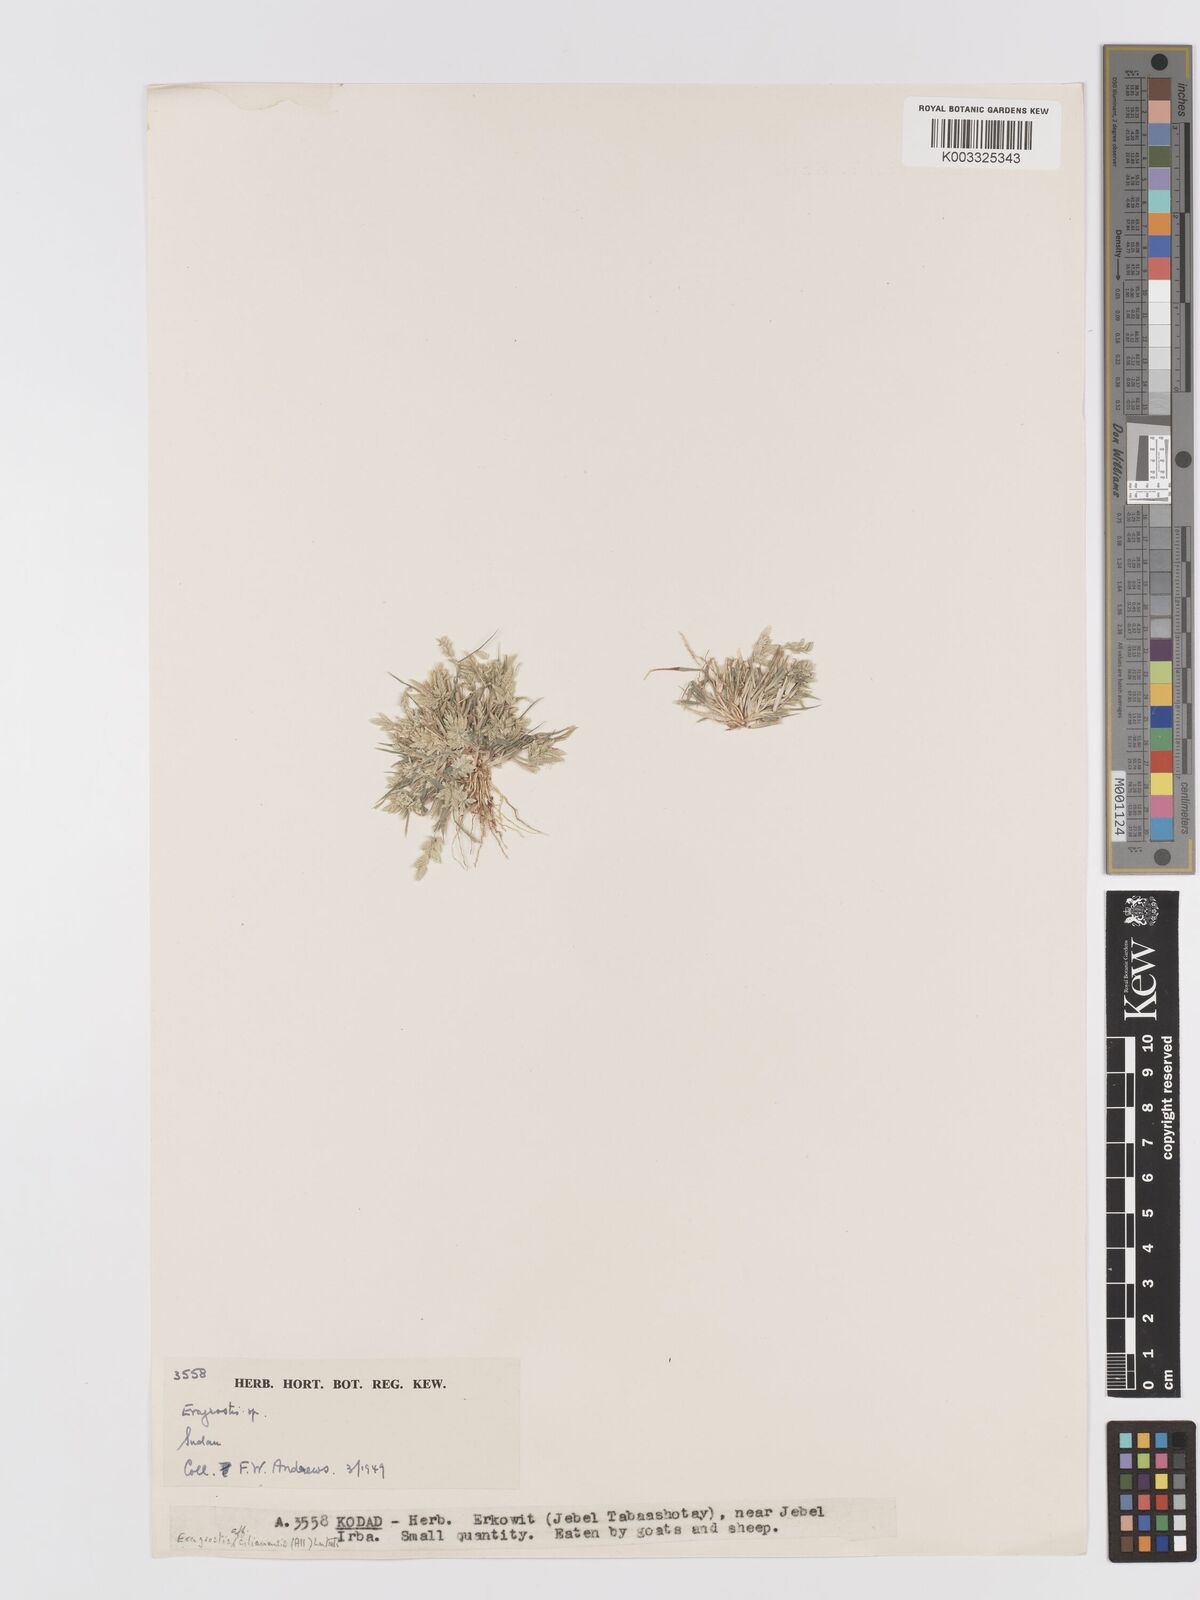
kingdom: Plantae
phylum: Tracheophyta
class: Liliopsida
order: Poales
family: Poaceae
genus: Eragrostis
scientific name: Eragrostis cilianensis
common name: Stinkgrass
